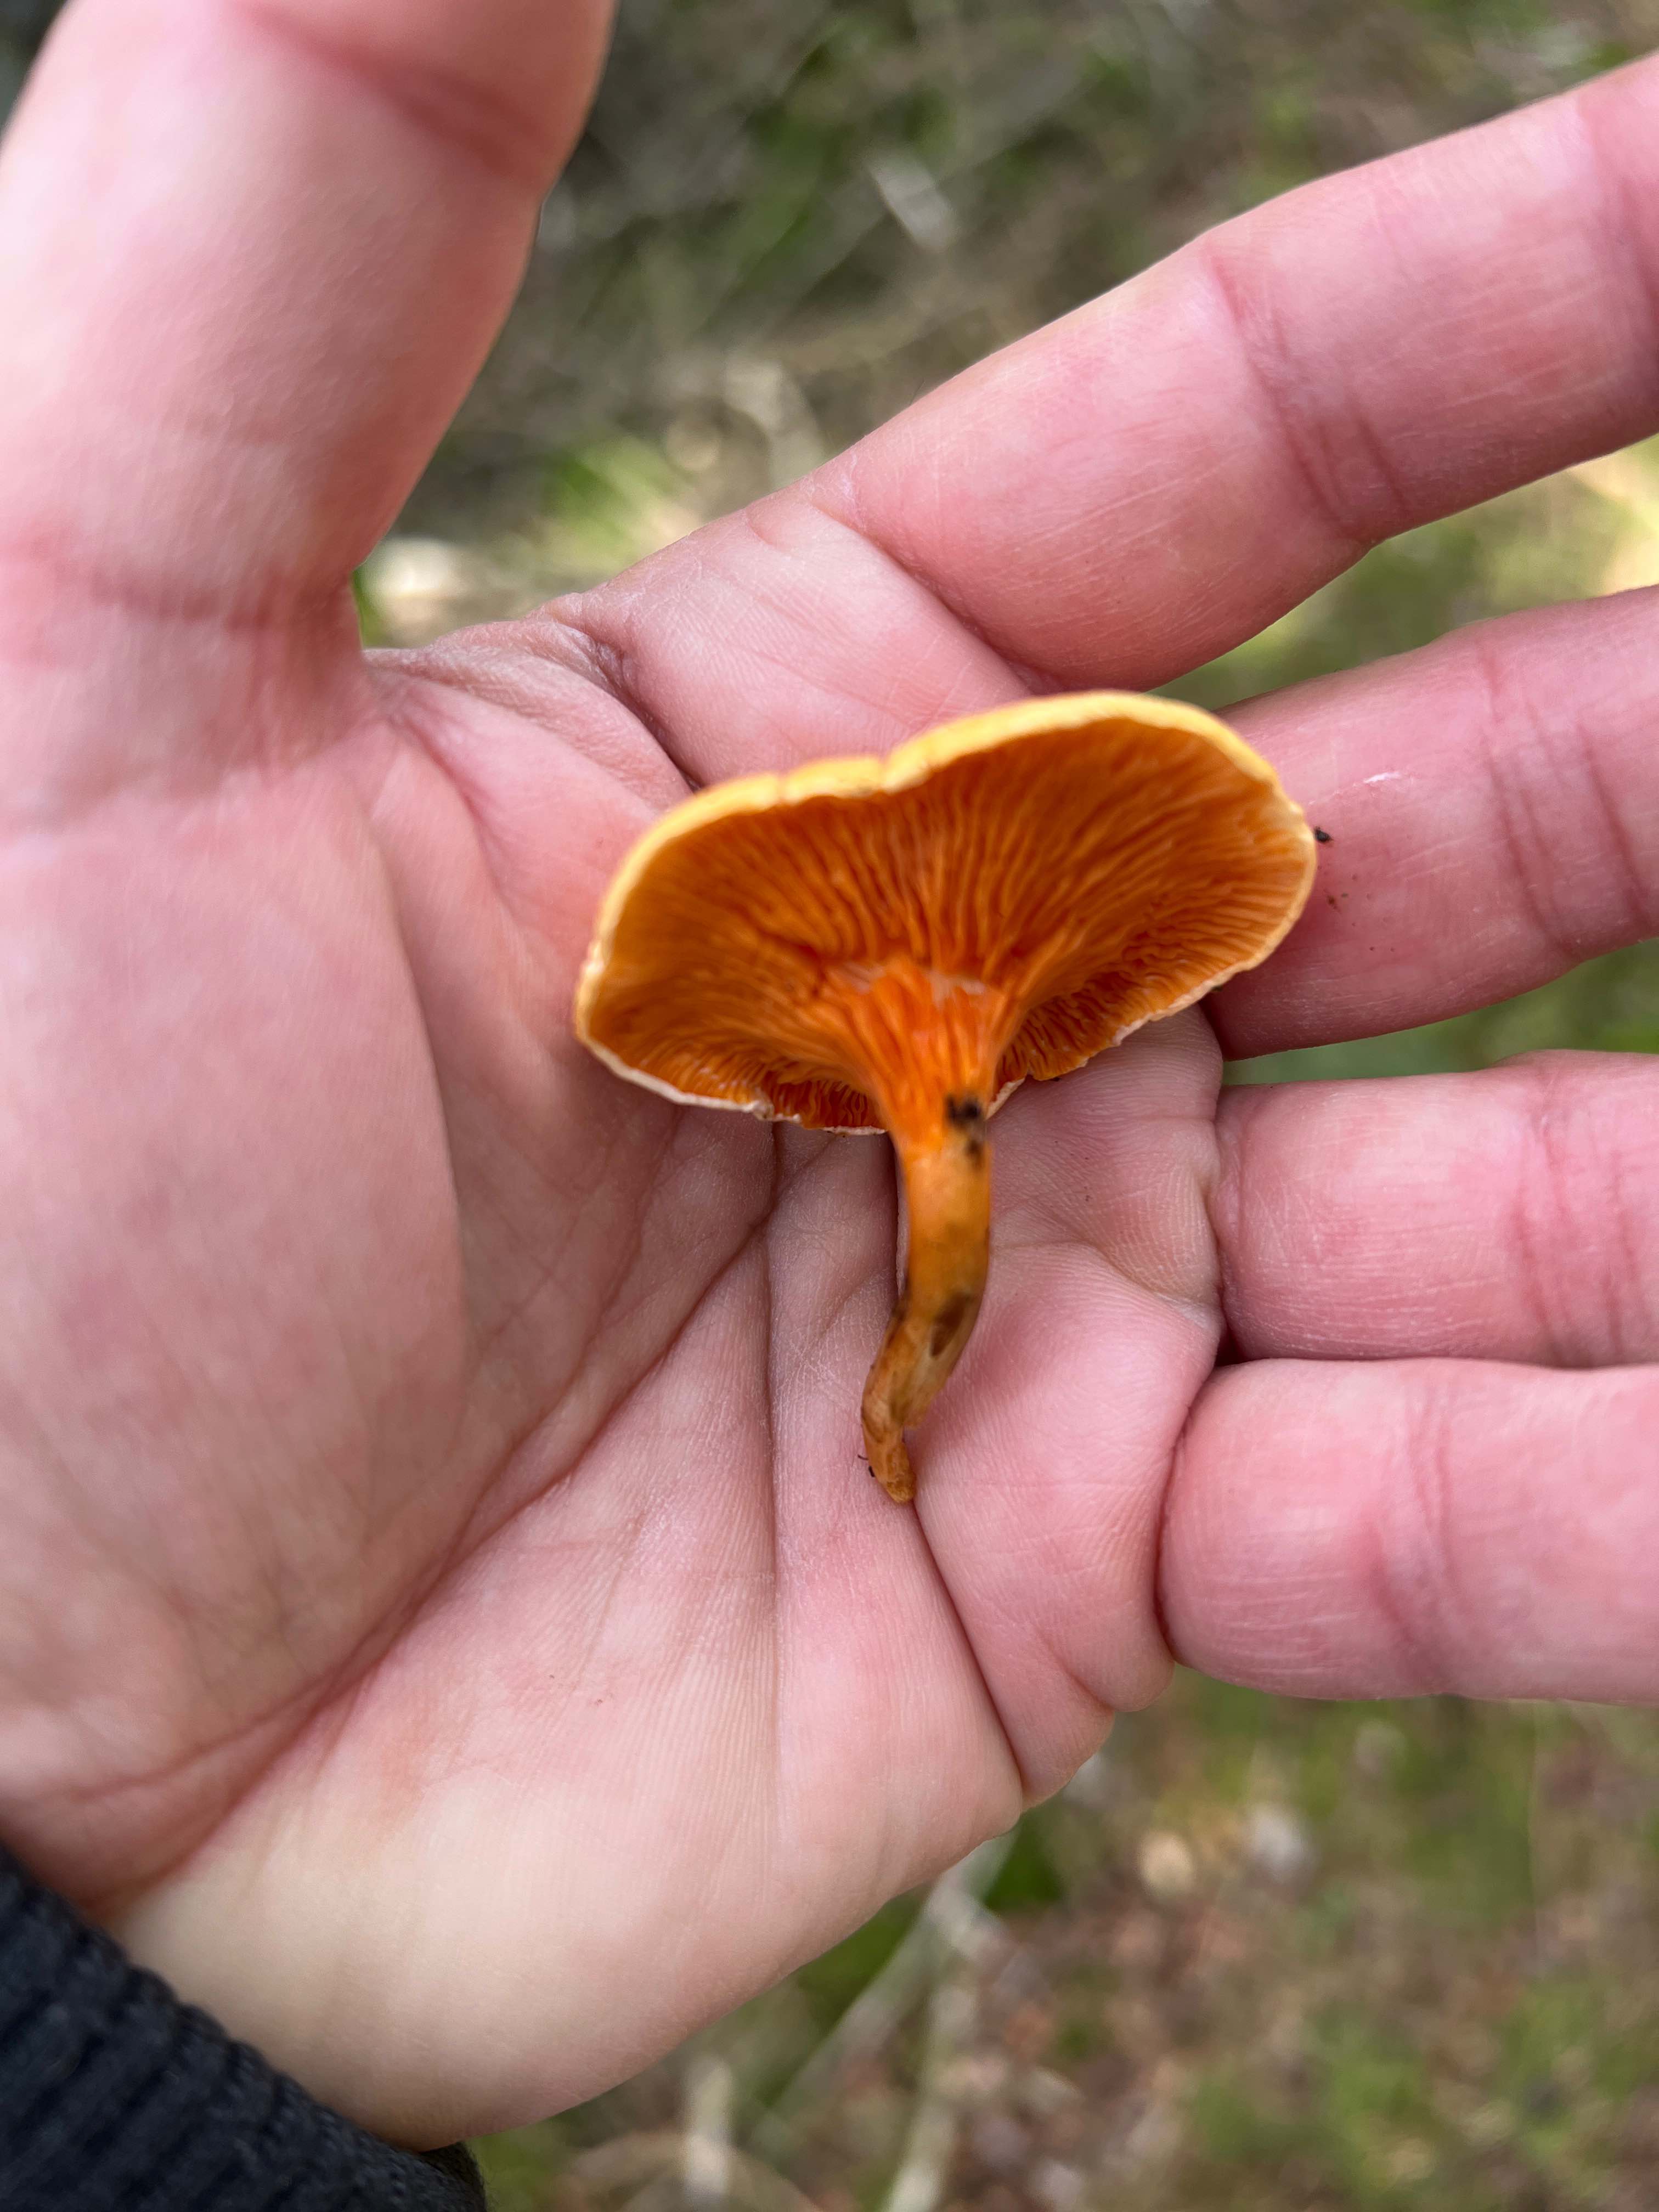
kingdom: Fungi
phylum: Basidiomycota
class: Agaricomycetes
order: Boletales
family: Hygrophoropsidaceae
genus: Hygrophoropsis
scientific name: Hygrophoropsis aurantiaca
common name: almindelig orangekantarel
